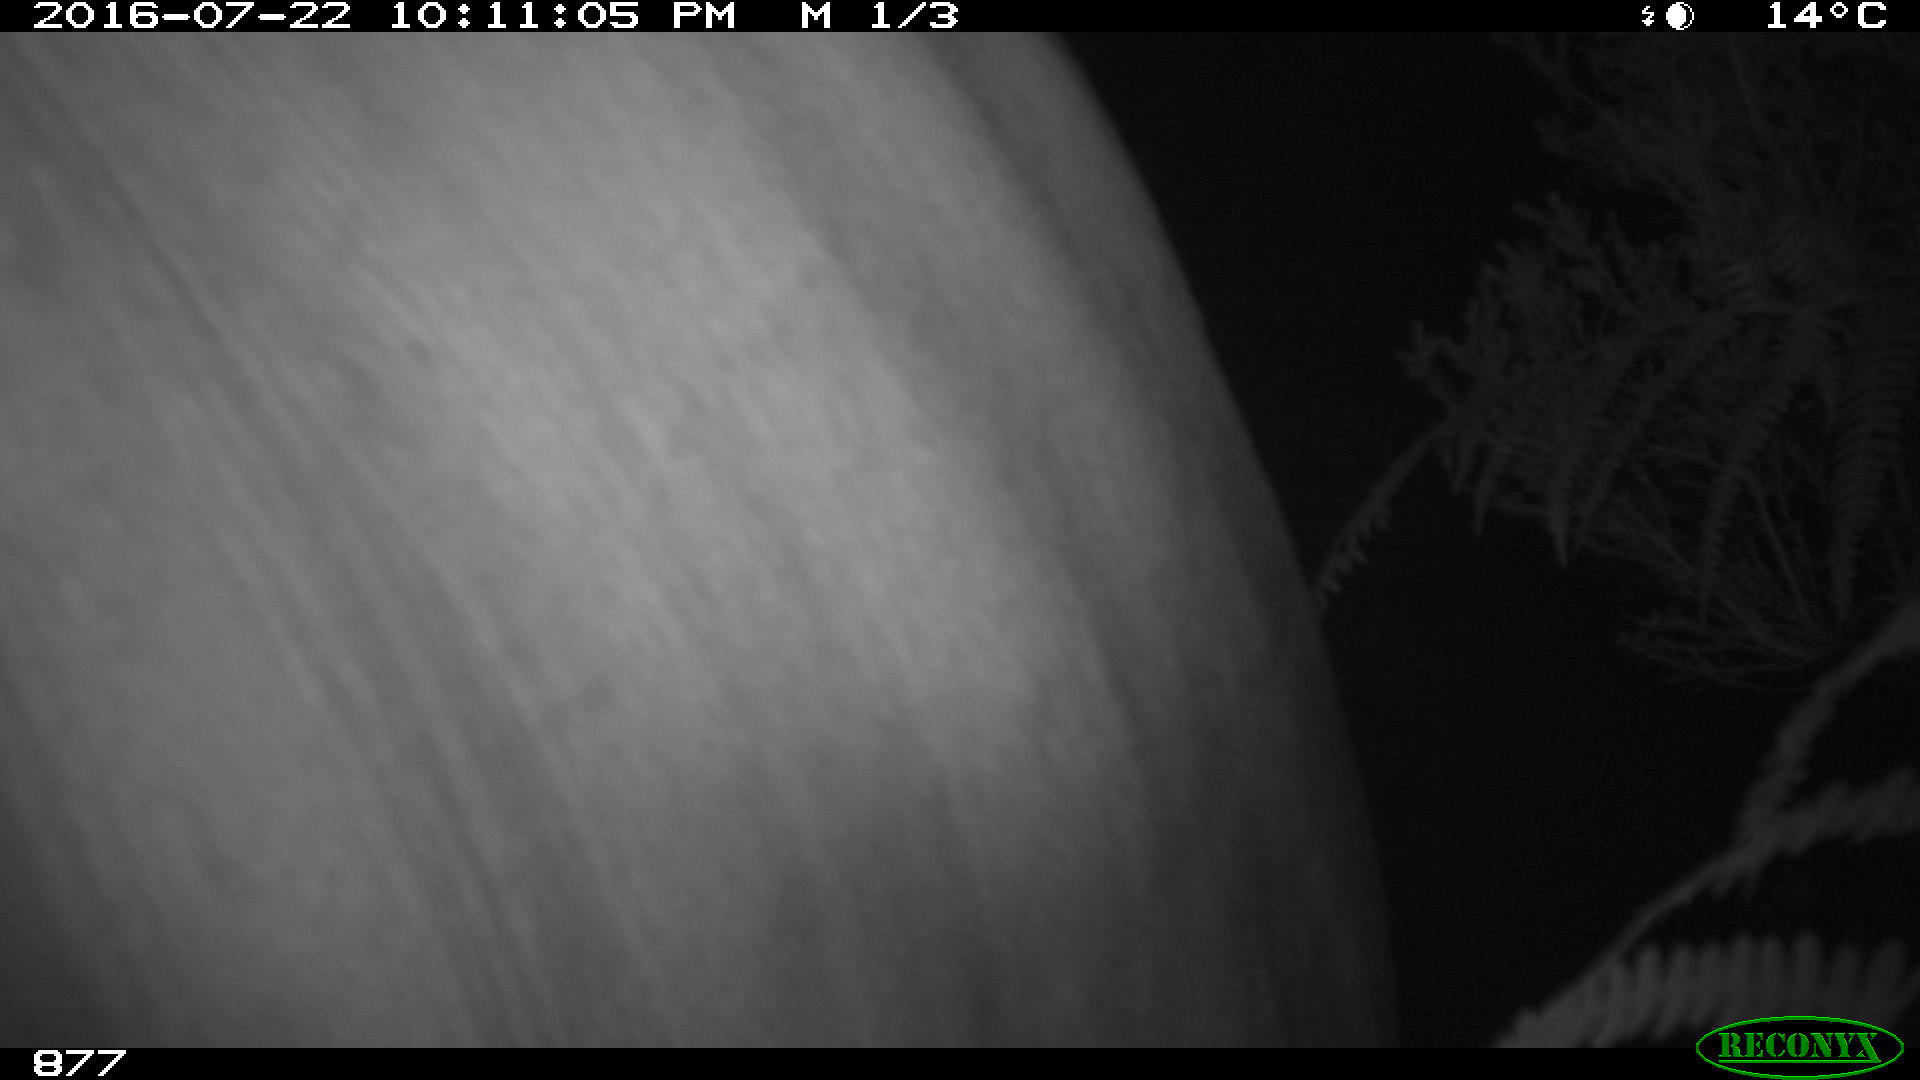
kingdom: Animalia
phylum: Chordata
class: Mammalia
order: Artiodactyla
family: Bovidae
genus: Bos
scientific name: Bos taurus
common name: Domesticated cattle
